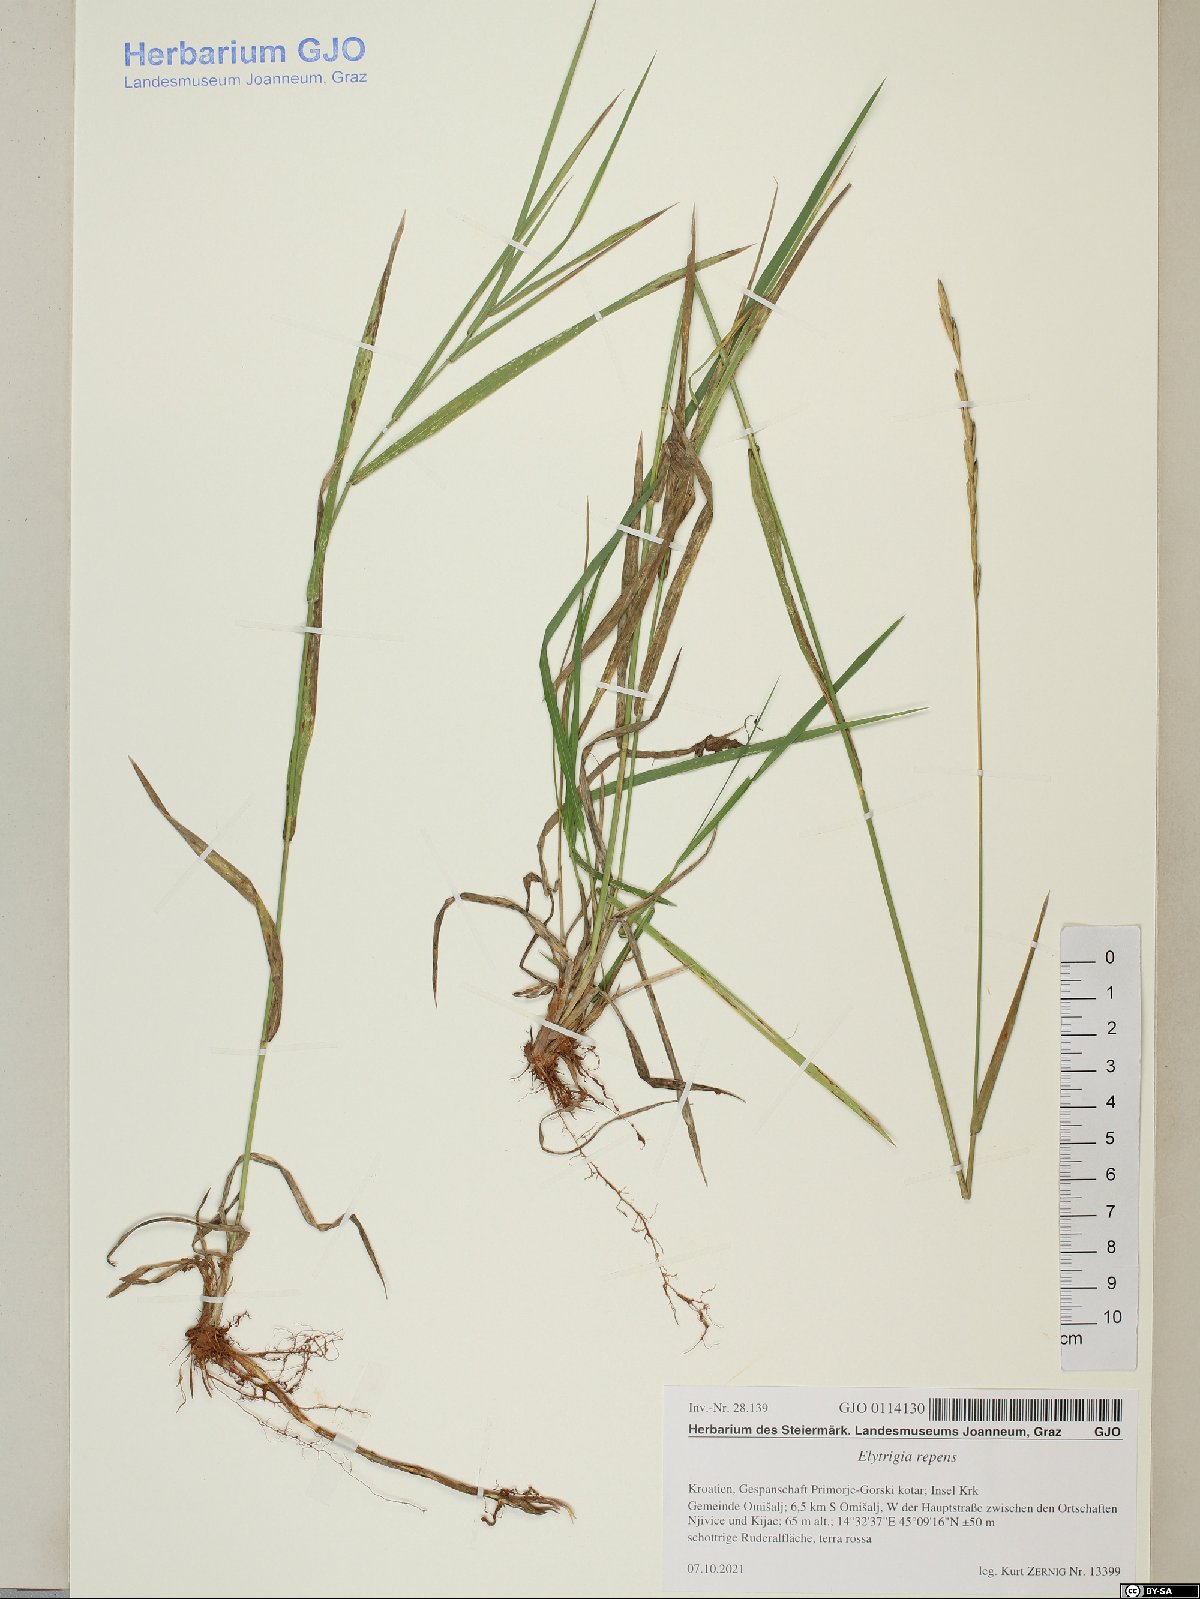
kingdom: Plantae
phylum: Tracheophyta
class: Liliopsida
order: Poales
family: Poaceae
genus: Elymus
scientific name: Elymus repens
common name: Quackgrass
